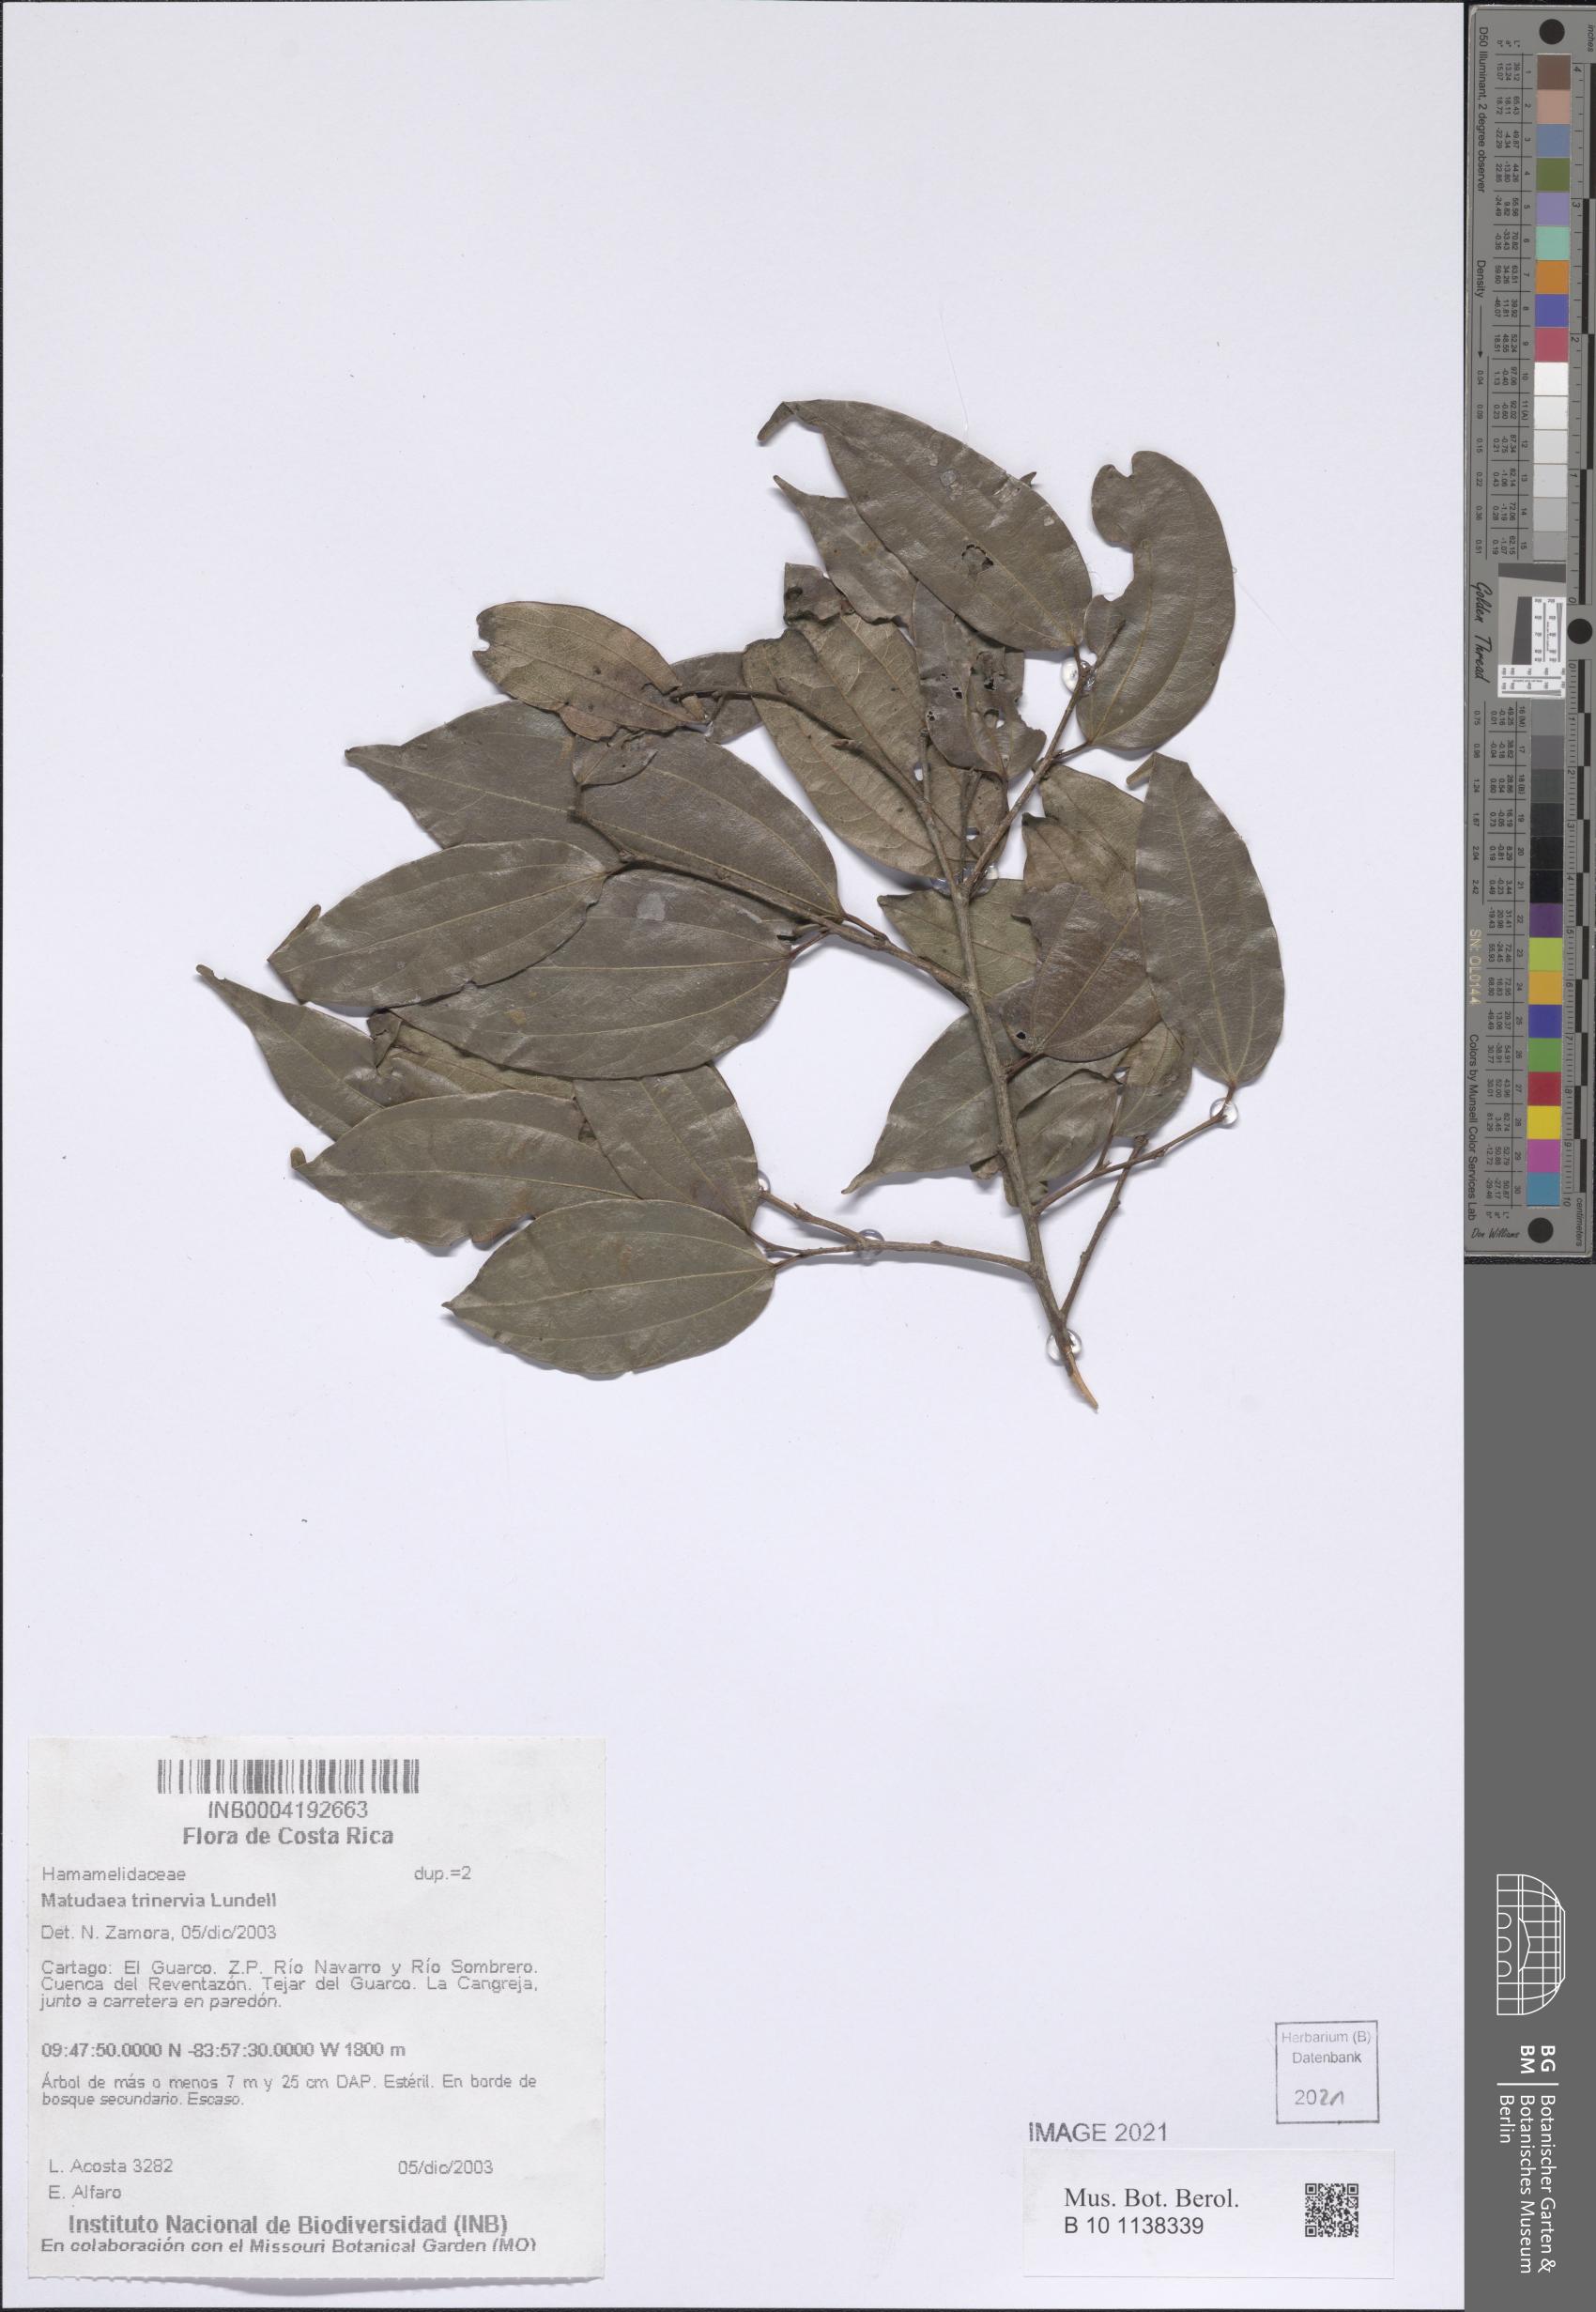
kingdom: Plantae
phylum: Tracheophyta
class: Magnoliopsida
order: Saxifragales
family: Hamamelidaceae
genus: Matudaea
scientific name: Matudaea trinervia
